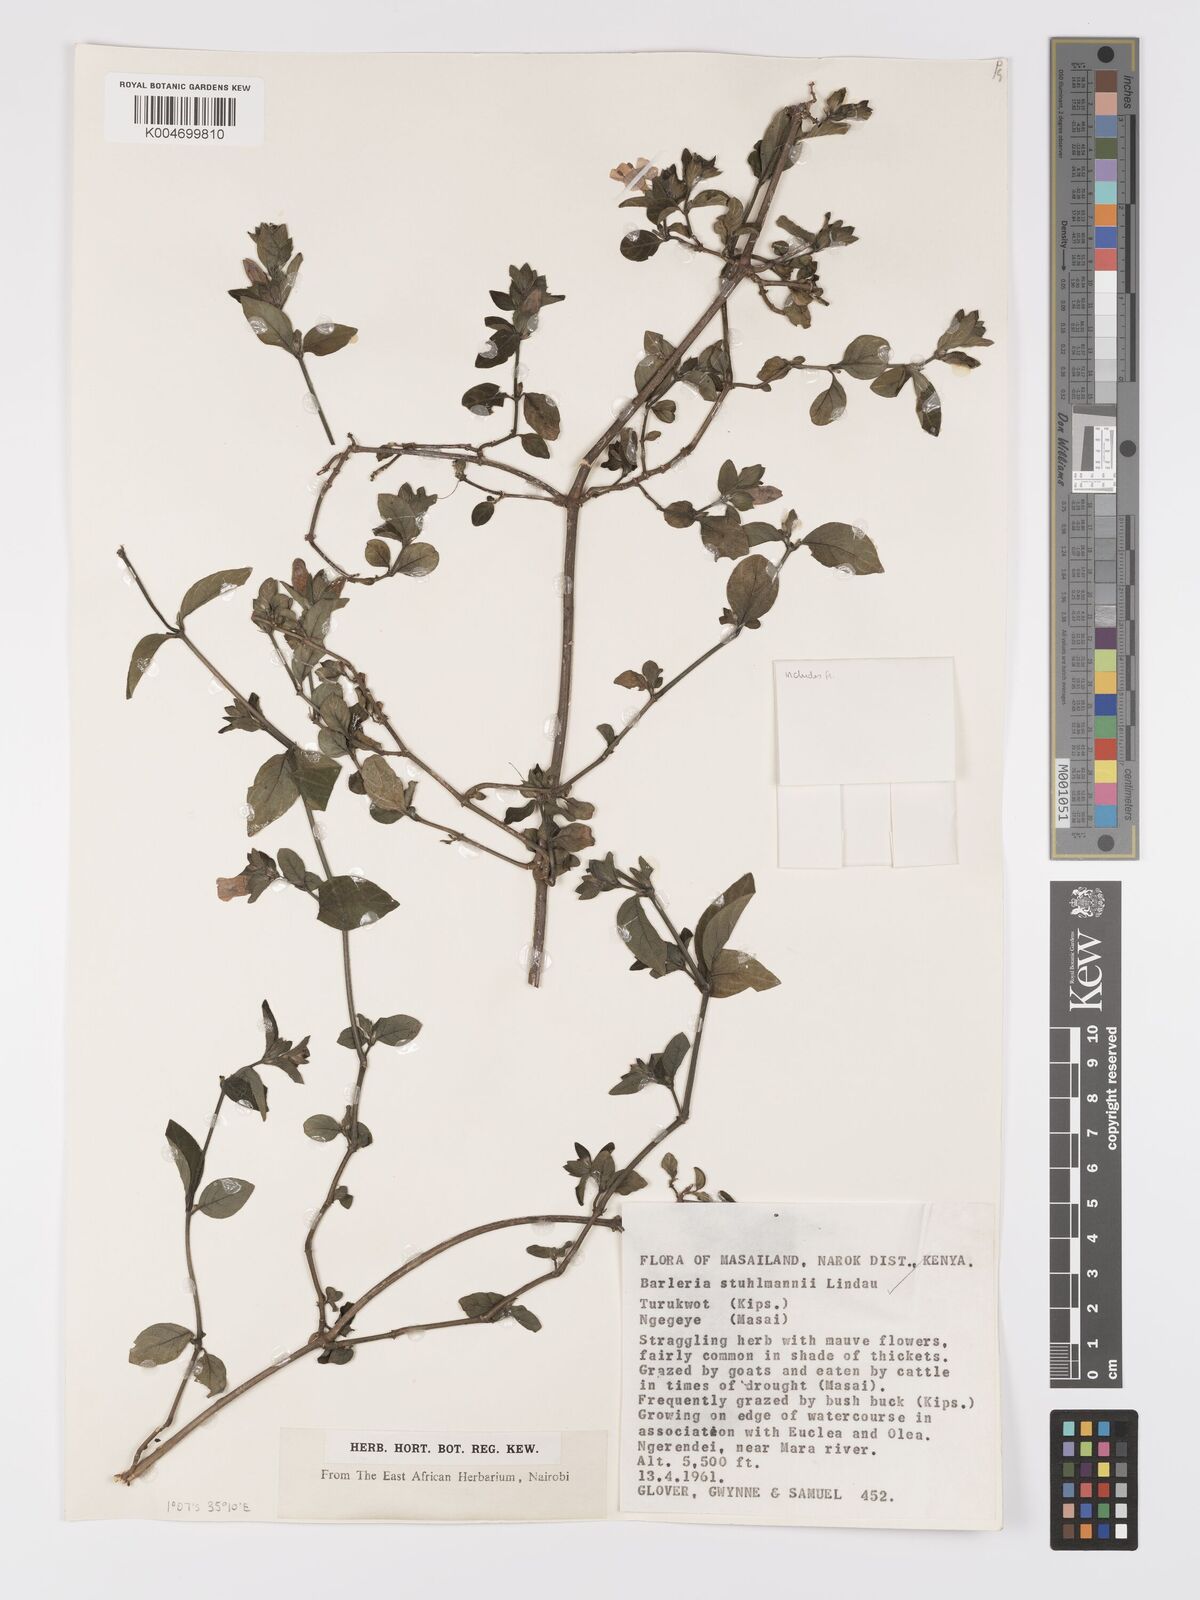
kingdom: Plantae
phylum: Tracheophyta
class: Magnoliopsida
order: Lamiales
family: Acanthaceae
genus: Barleria
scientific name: Barleria ventricosa
